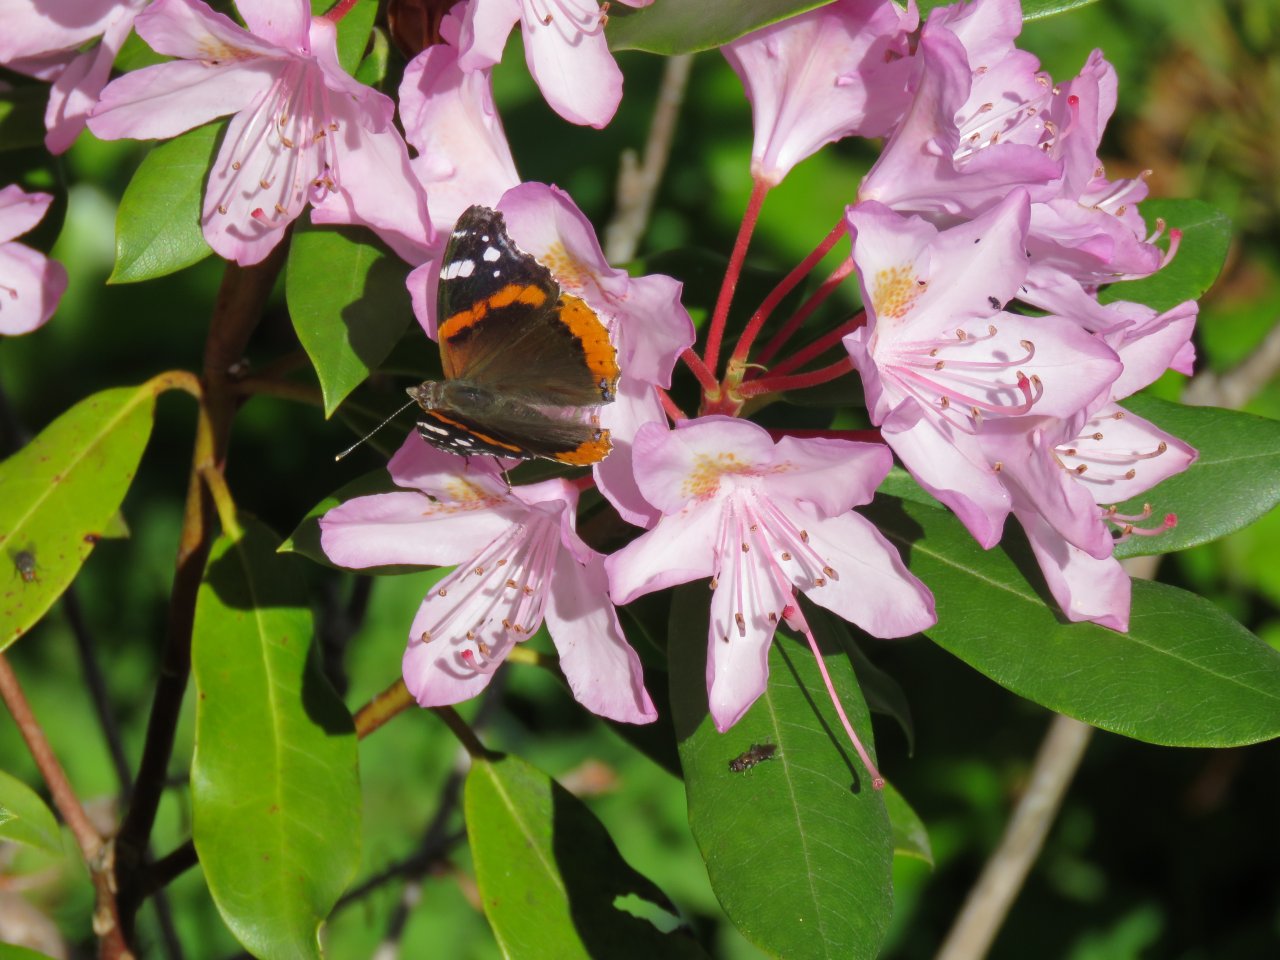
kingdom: Animalia
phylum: Arthropoda
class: Insecta
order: Lepidoptera
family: Nymphalidae
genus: Vanessa
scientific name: Vanessa atalanta
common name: Red Admiral
